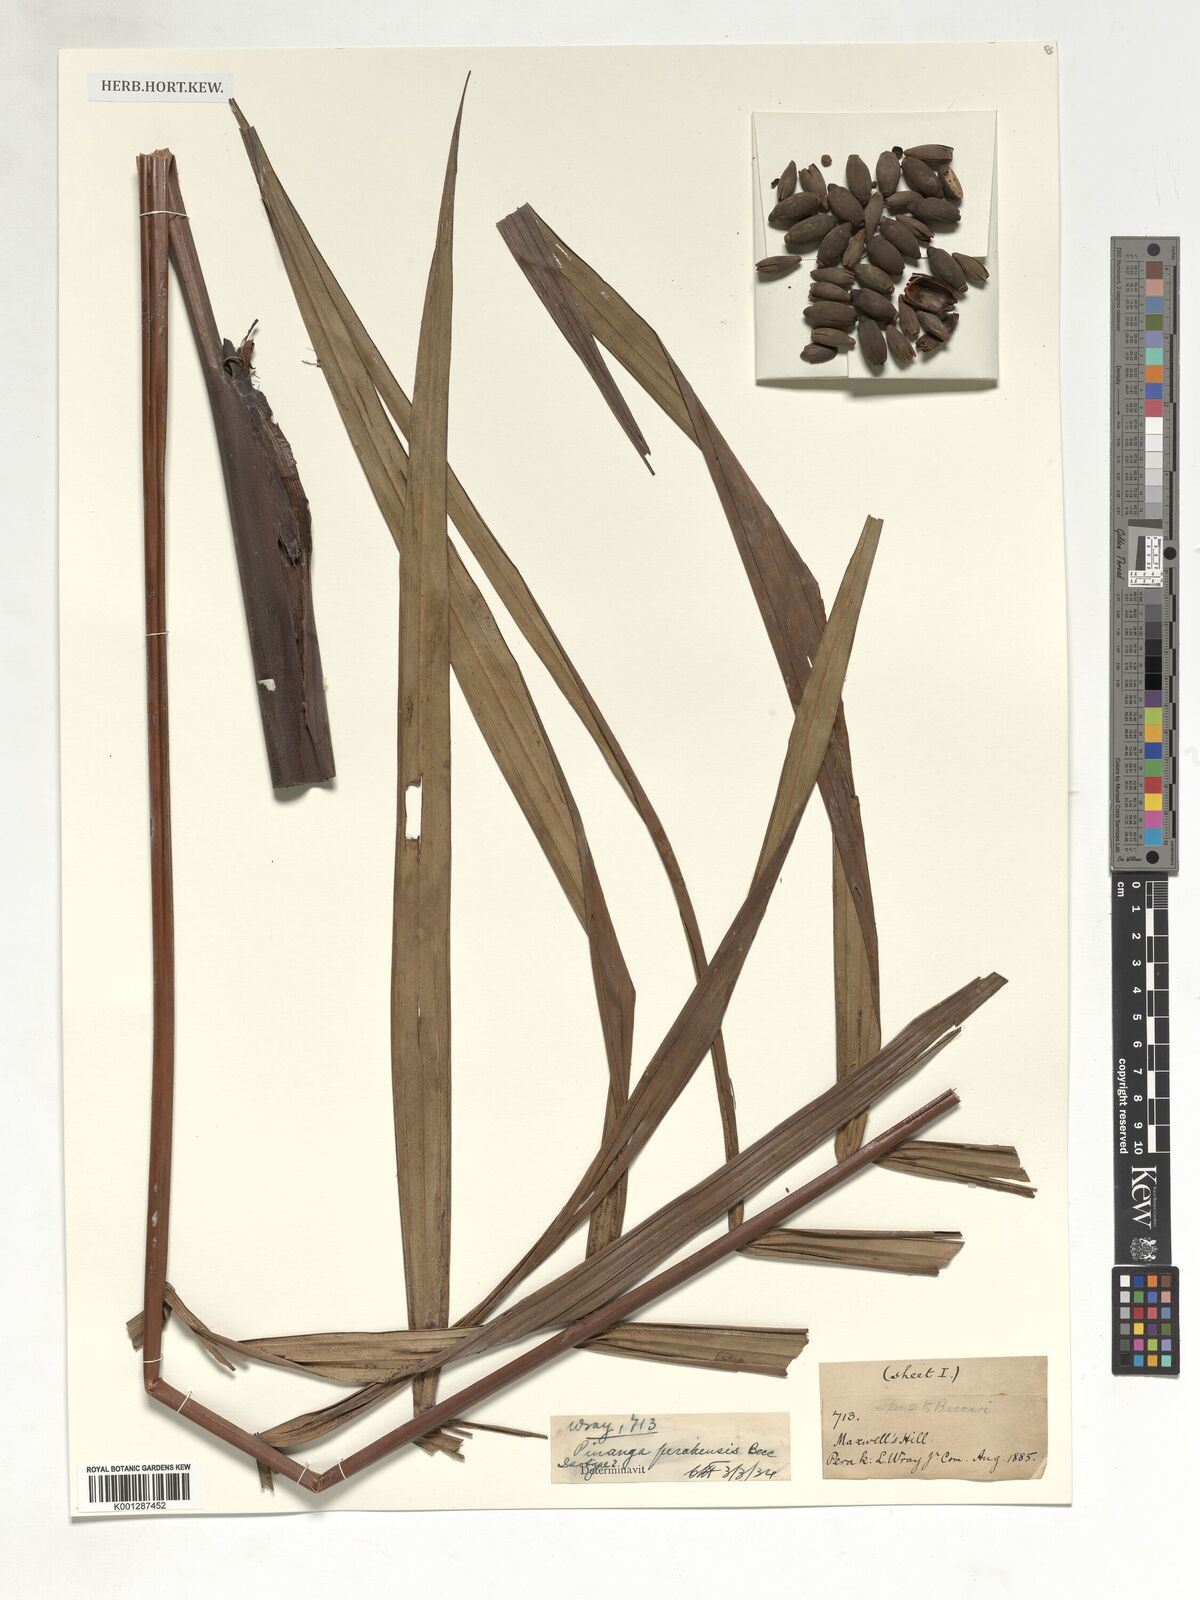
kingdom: Plantae
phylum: Tracheophyta
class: Liliopsida
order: Arecales
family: Arecaceae
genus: Pinanga
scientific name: Pinanga perakensis
